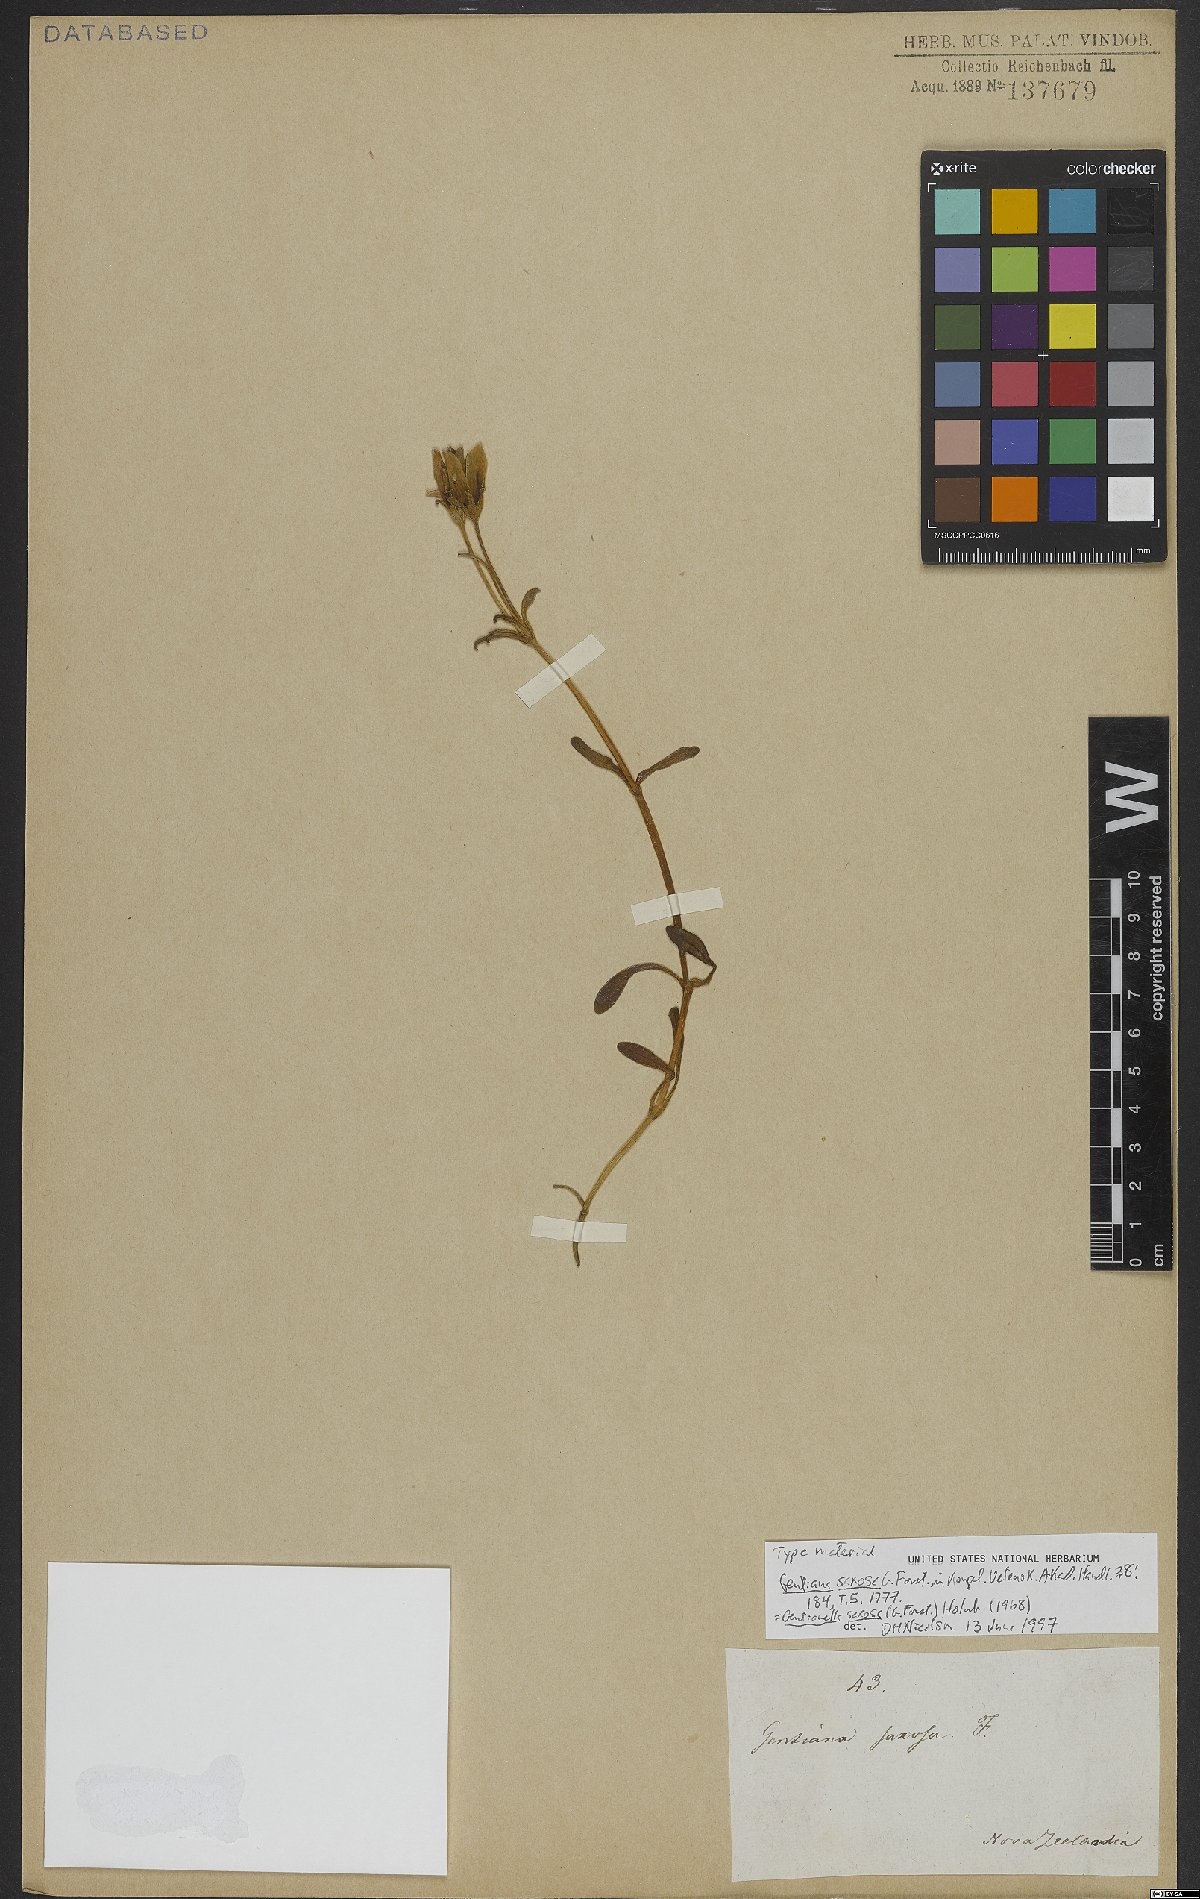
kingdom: Plantae
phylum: Tracheophyta
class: Magnoliopsida
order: Gentianales
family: Gentianaceae
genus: Gentianella
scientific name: Gentianella saxosa
